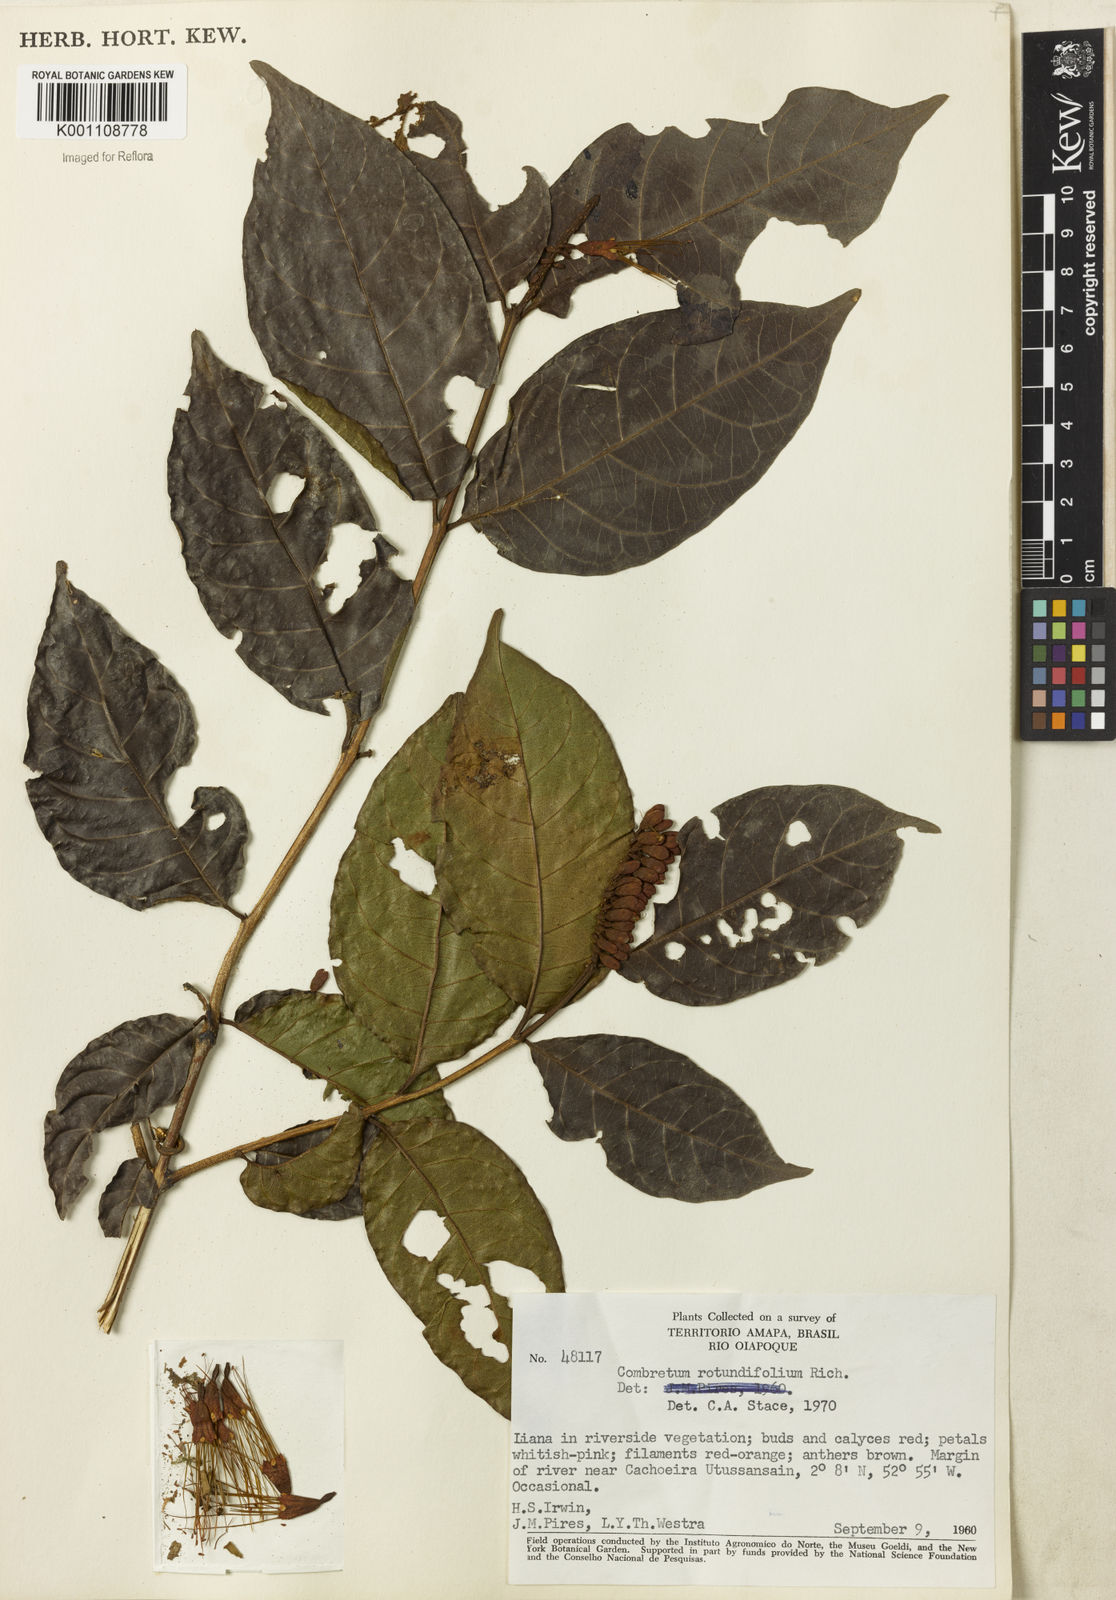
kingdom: Plantae
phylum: Tracheophyta
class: Magnoliopsida
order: Myrtales
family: Combretaceae
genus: Combretum
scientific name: Combretum rotundifolium
